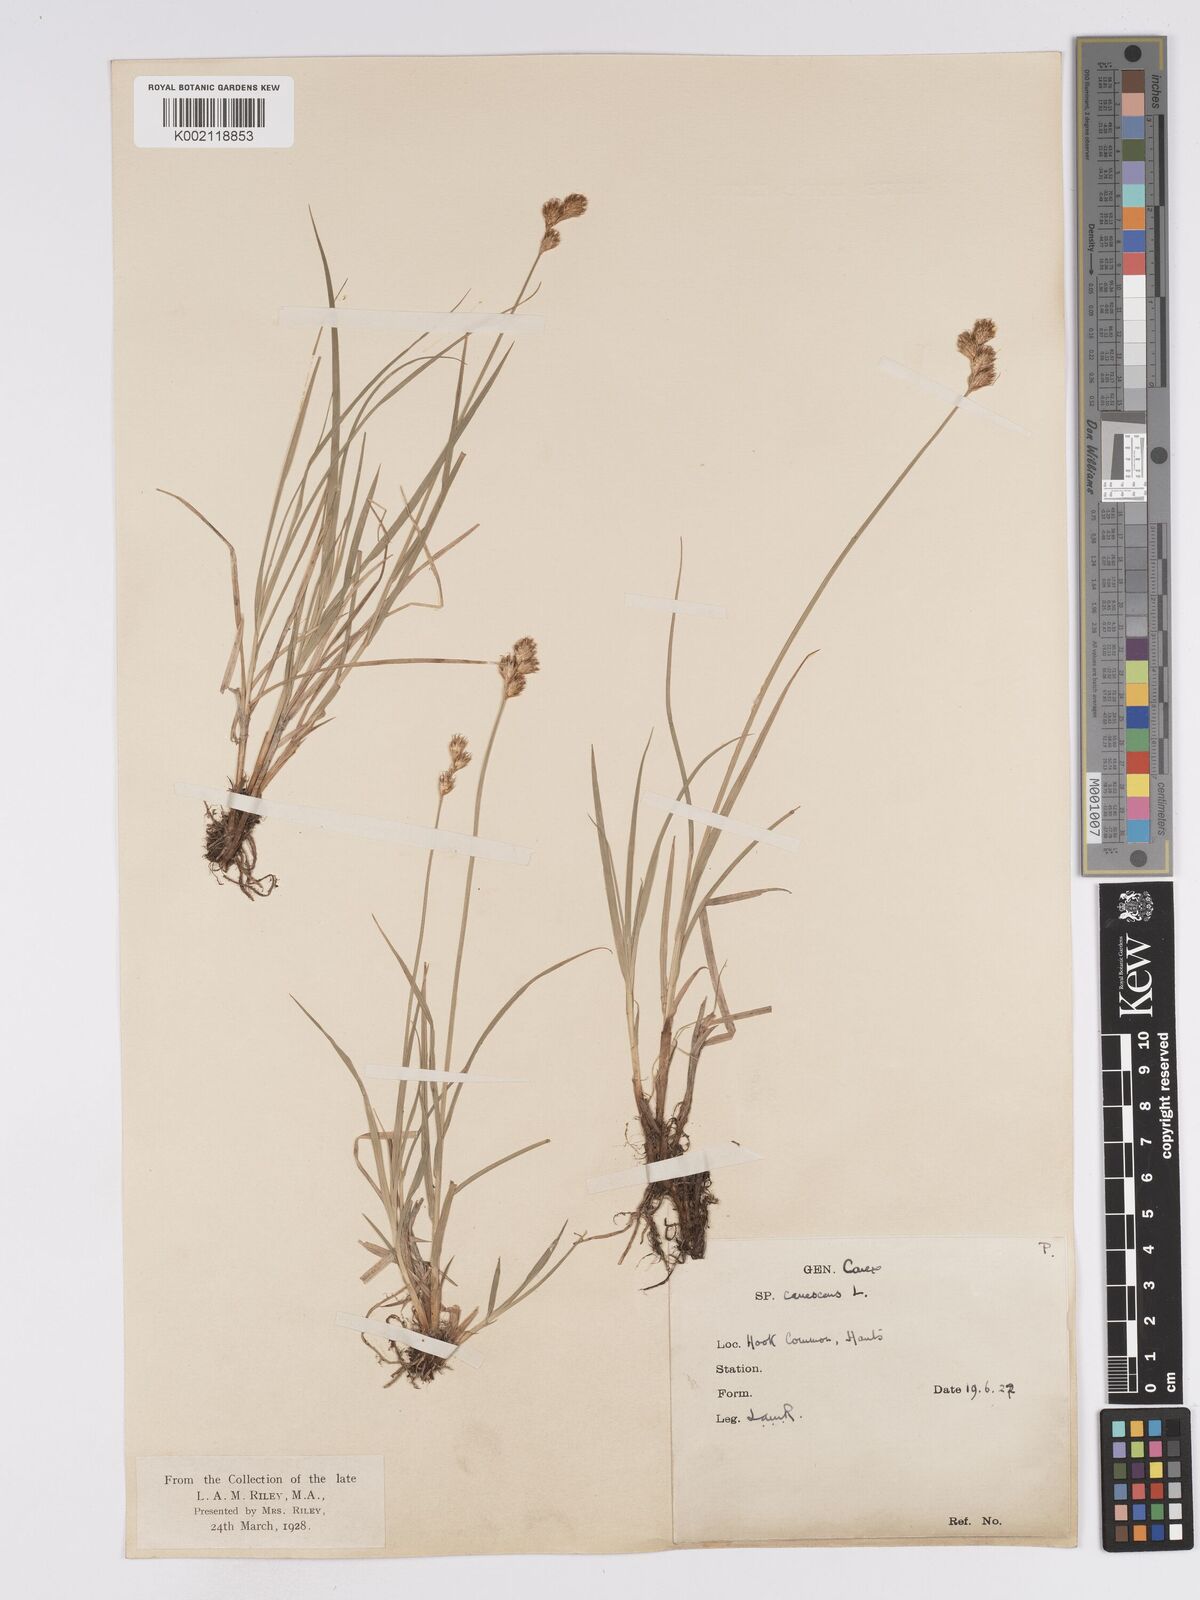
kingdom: Plantae
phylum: Tracheophyta
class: Liliopsida
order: Poales
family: Cyperaceae
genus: Carex
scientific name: Carex leporina
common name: Oval sedge
